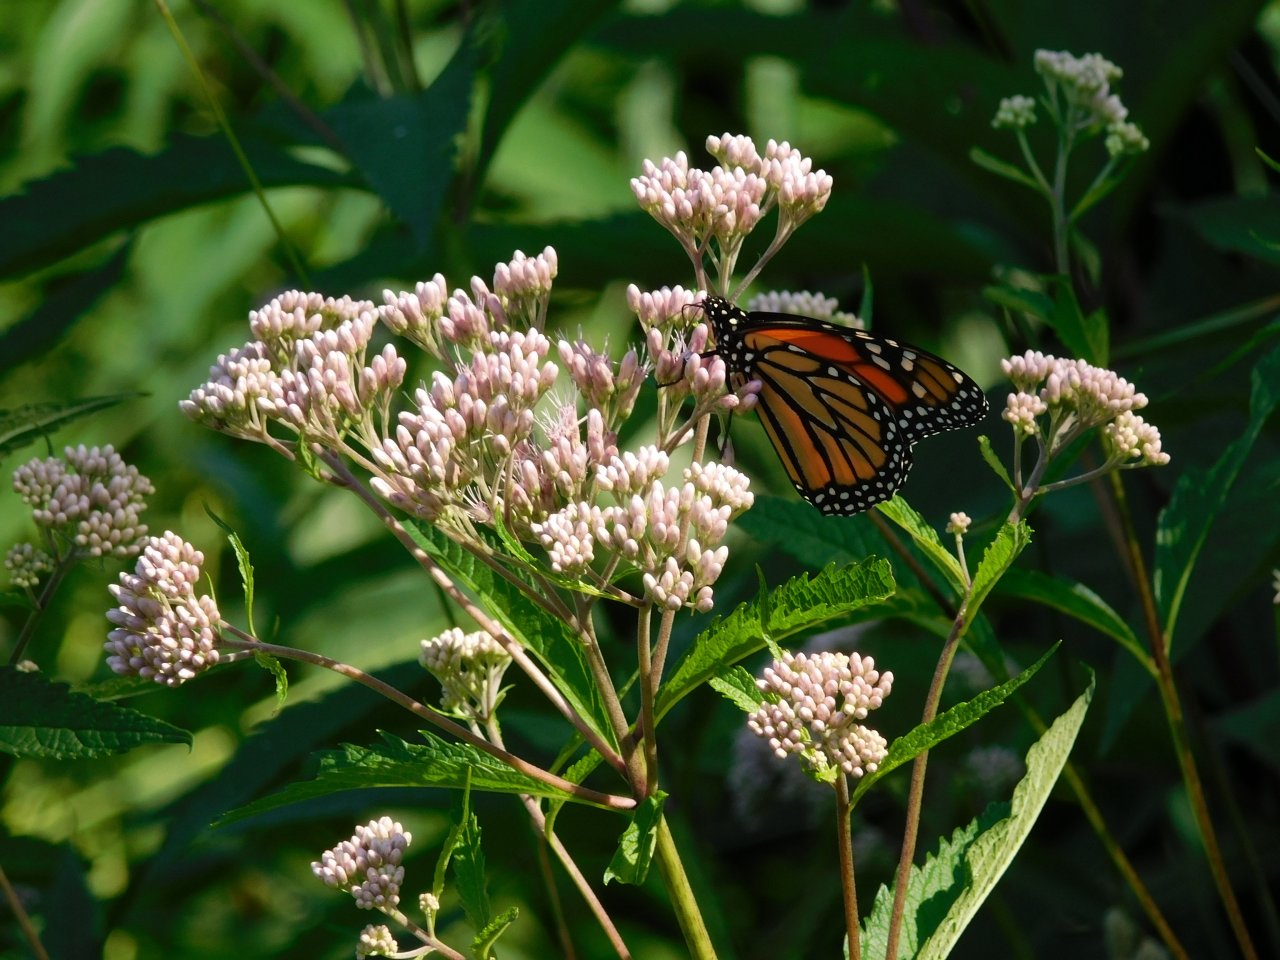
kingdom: Animalia
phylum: Arthropoda
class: Insecta
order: Lepidoptera
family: Nymphalidae
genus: Danaus
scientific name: Danaus plexippus
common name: Monarch
